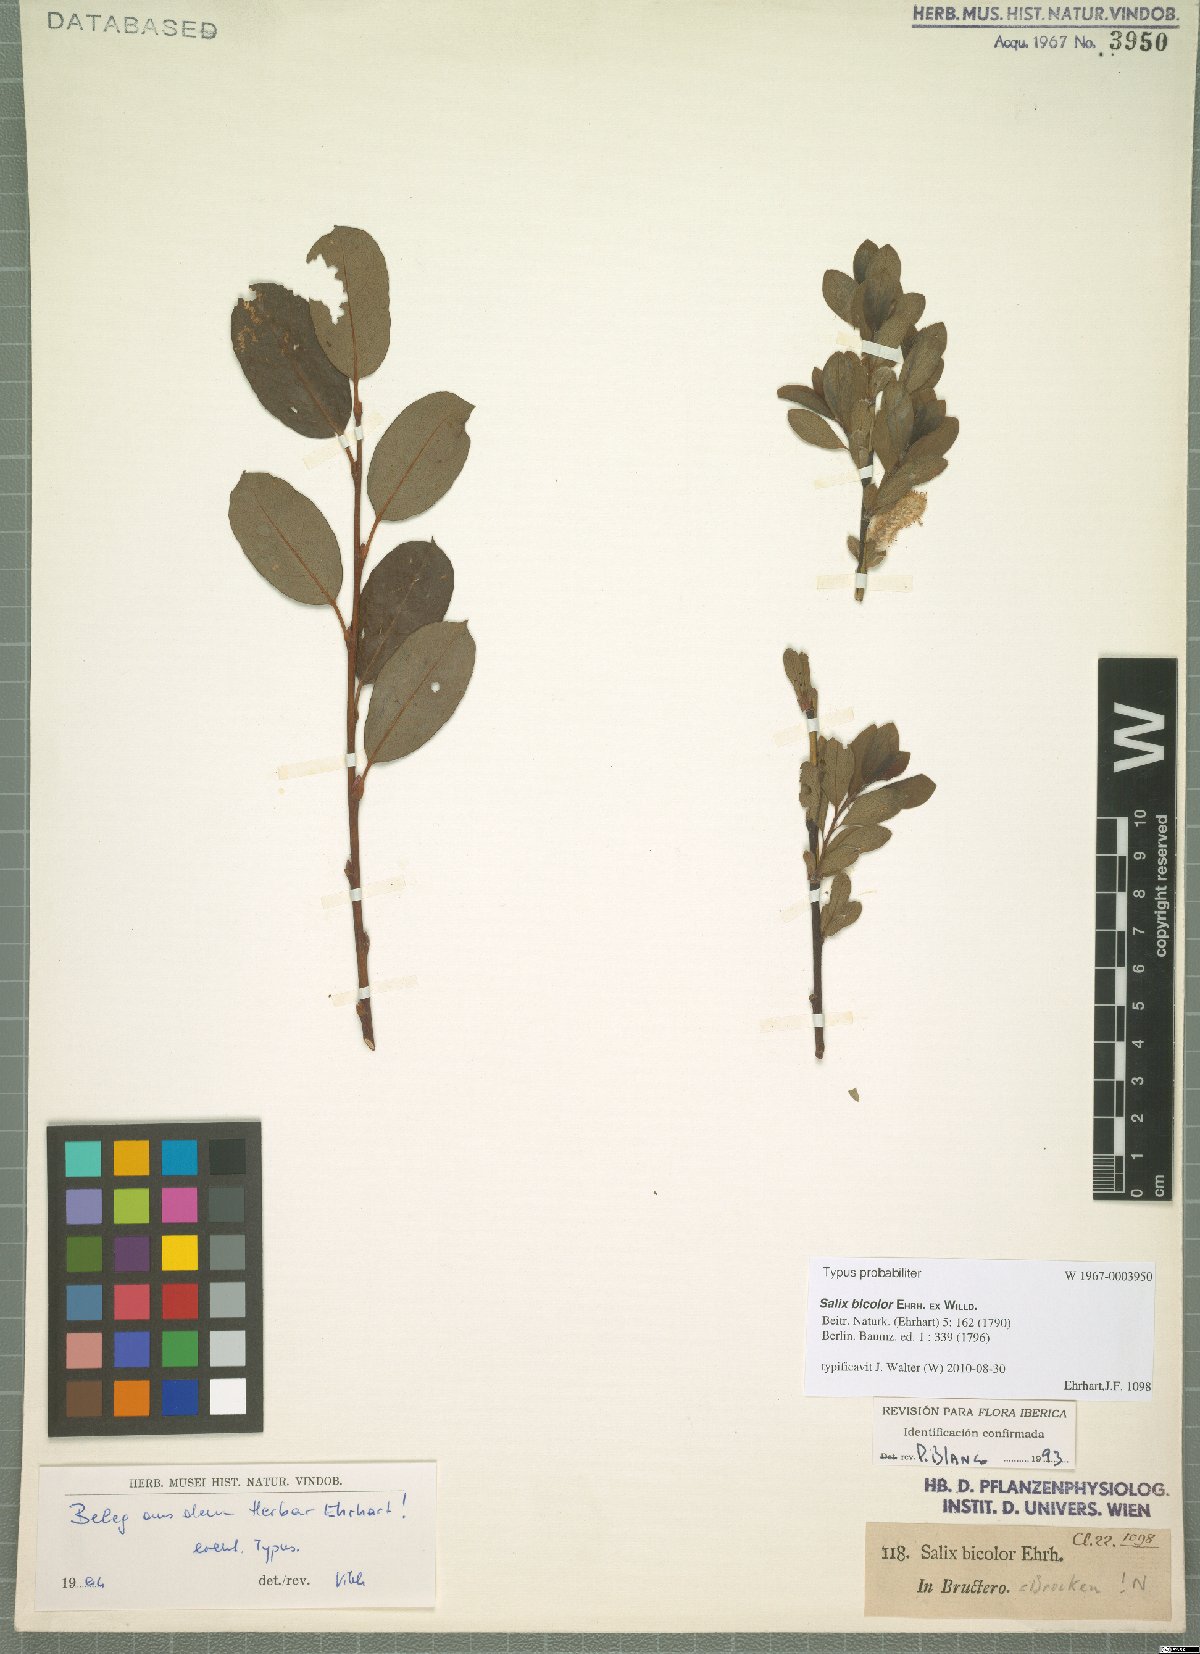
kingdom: Plantae
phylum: Tracheophyta
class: Magnoliopsida
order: Malpighiales
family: Salicaceae
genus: Salix
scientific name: Salix bicolor
